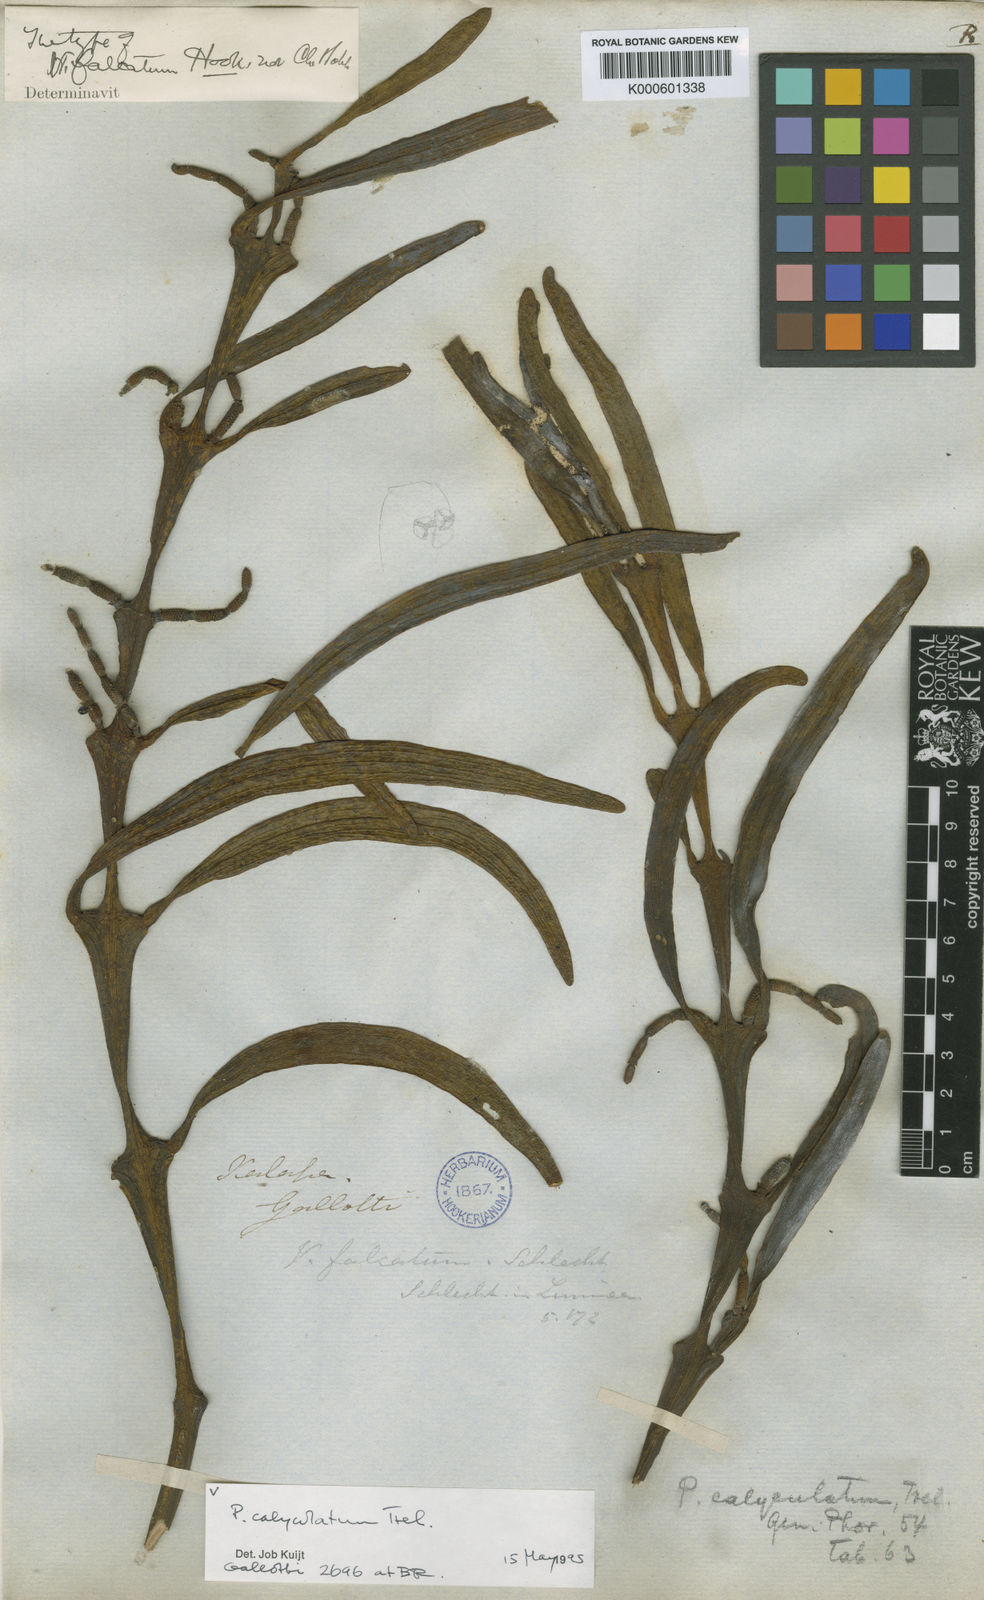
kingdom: Plantae
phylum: Tracheophyta
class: Magnoliopsida
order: Santalales
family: Viscaceae
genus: Phoradendron
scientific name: Phoradendron
